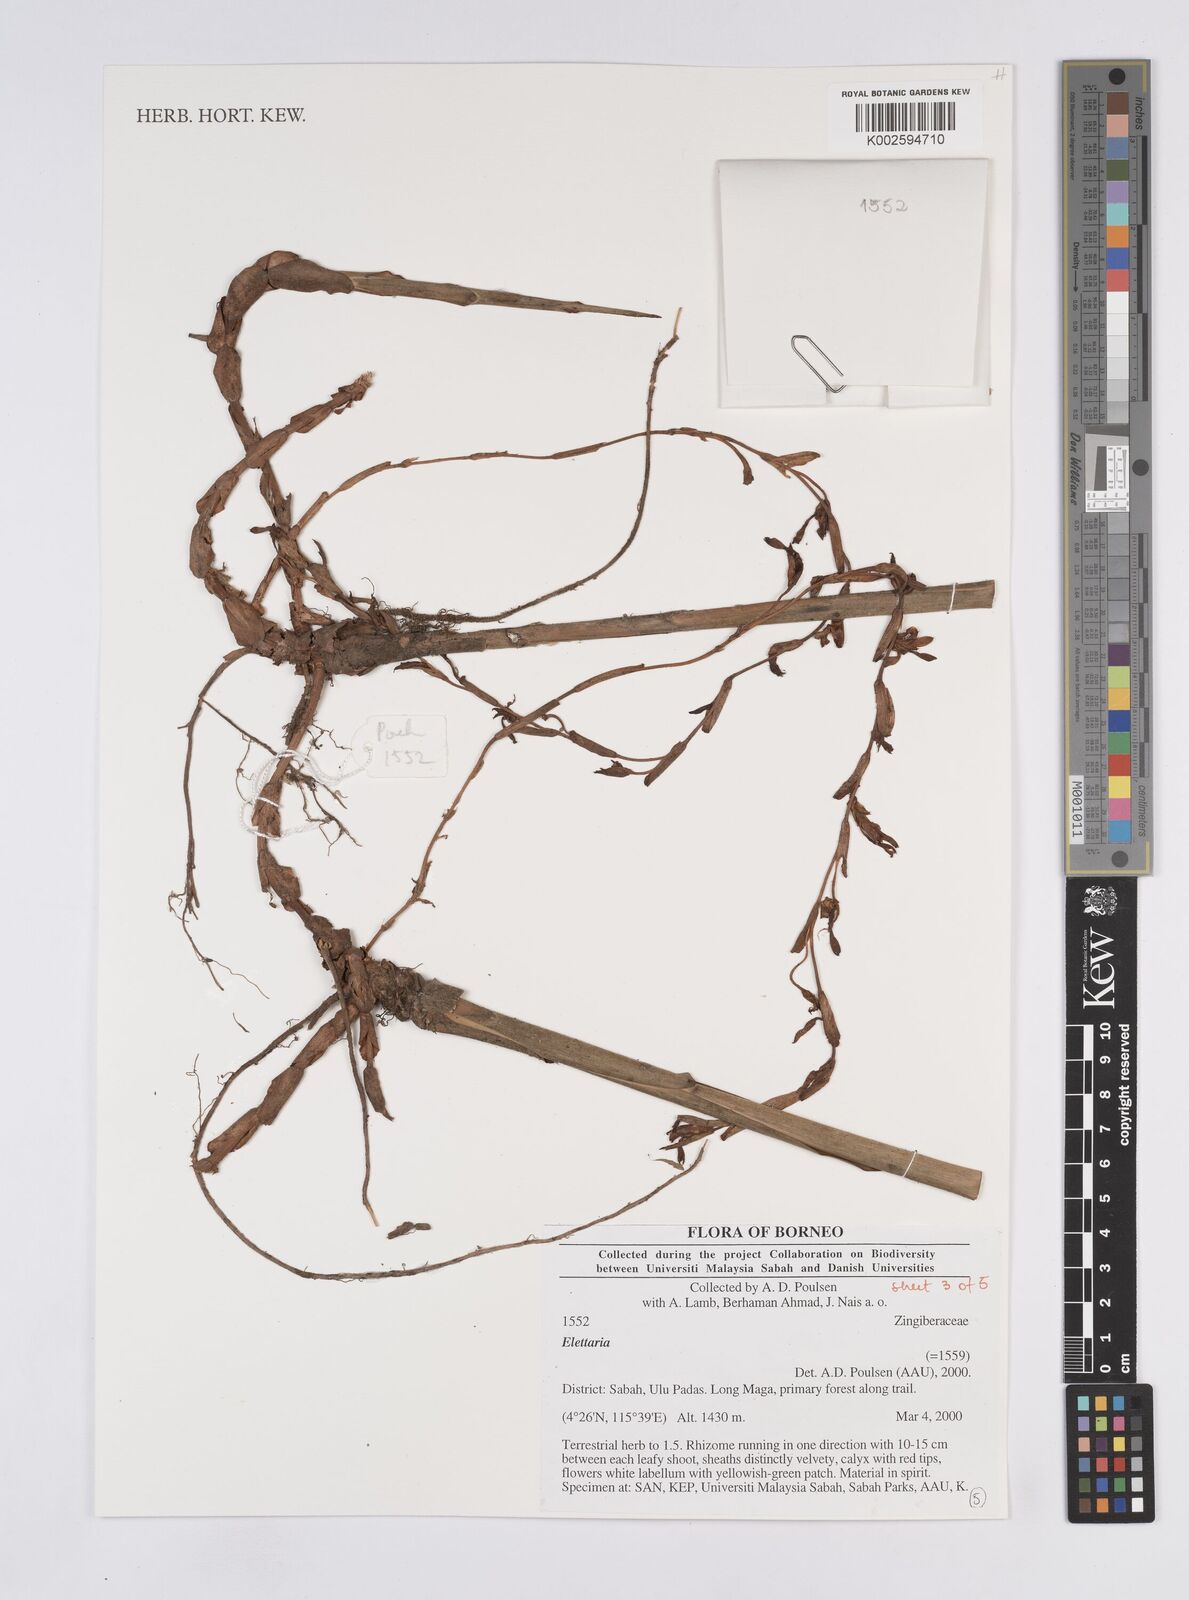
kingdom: Plantae
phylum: Tracheophyta
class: Liliopsida
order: Zingiberales
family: Zingiberaceae
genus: Elettaria
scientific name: Elettaria
